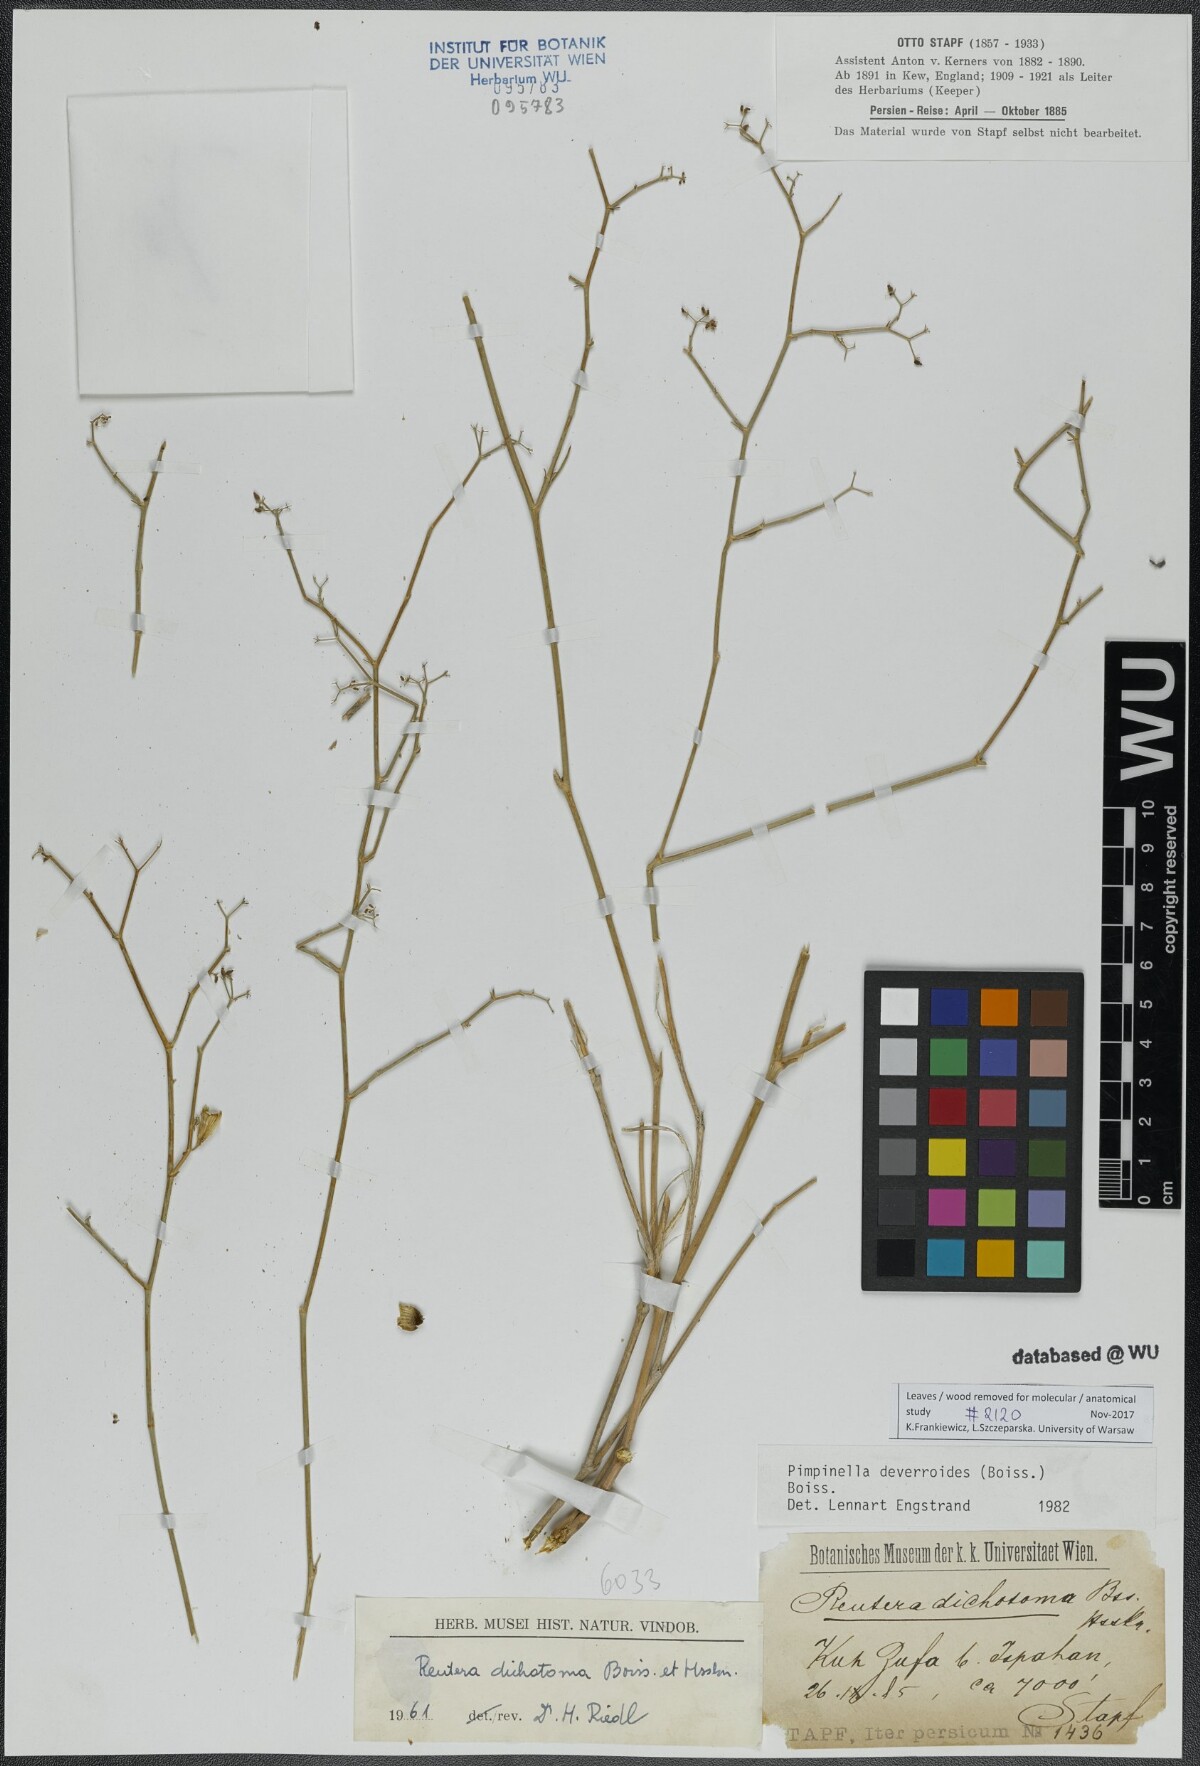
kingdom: Plantae
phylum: Tracheophyta
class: Magnoliopsida
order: Apiales
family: Apiaceae
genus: Pimpinella
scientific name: Pimpinella deverroides
